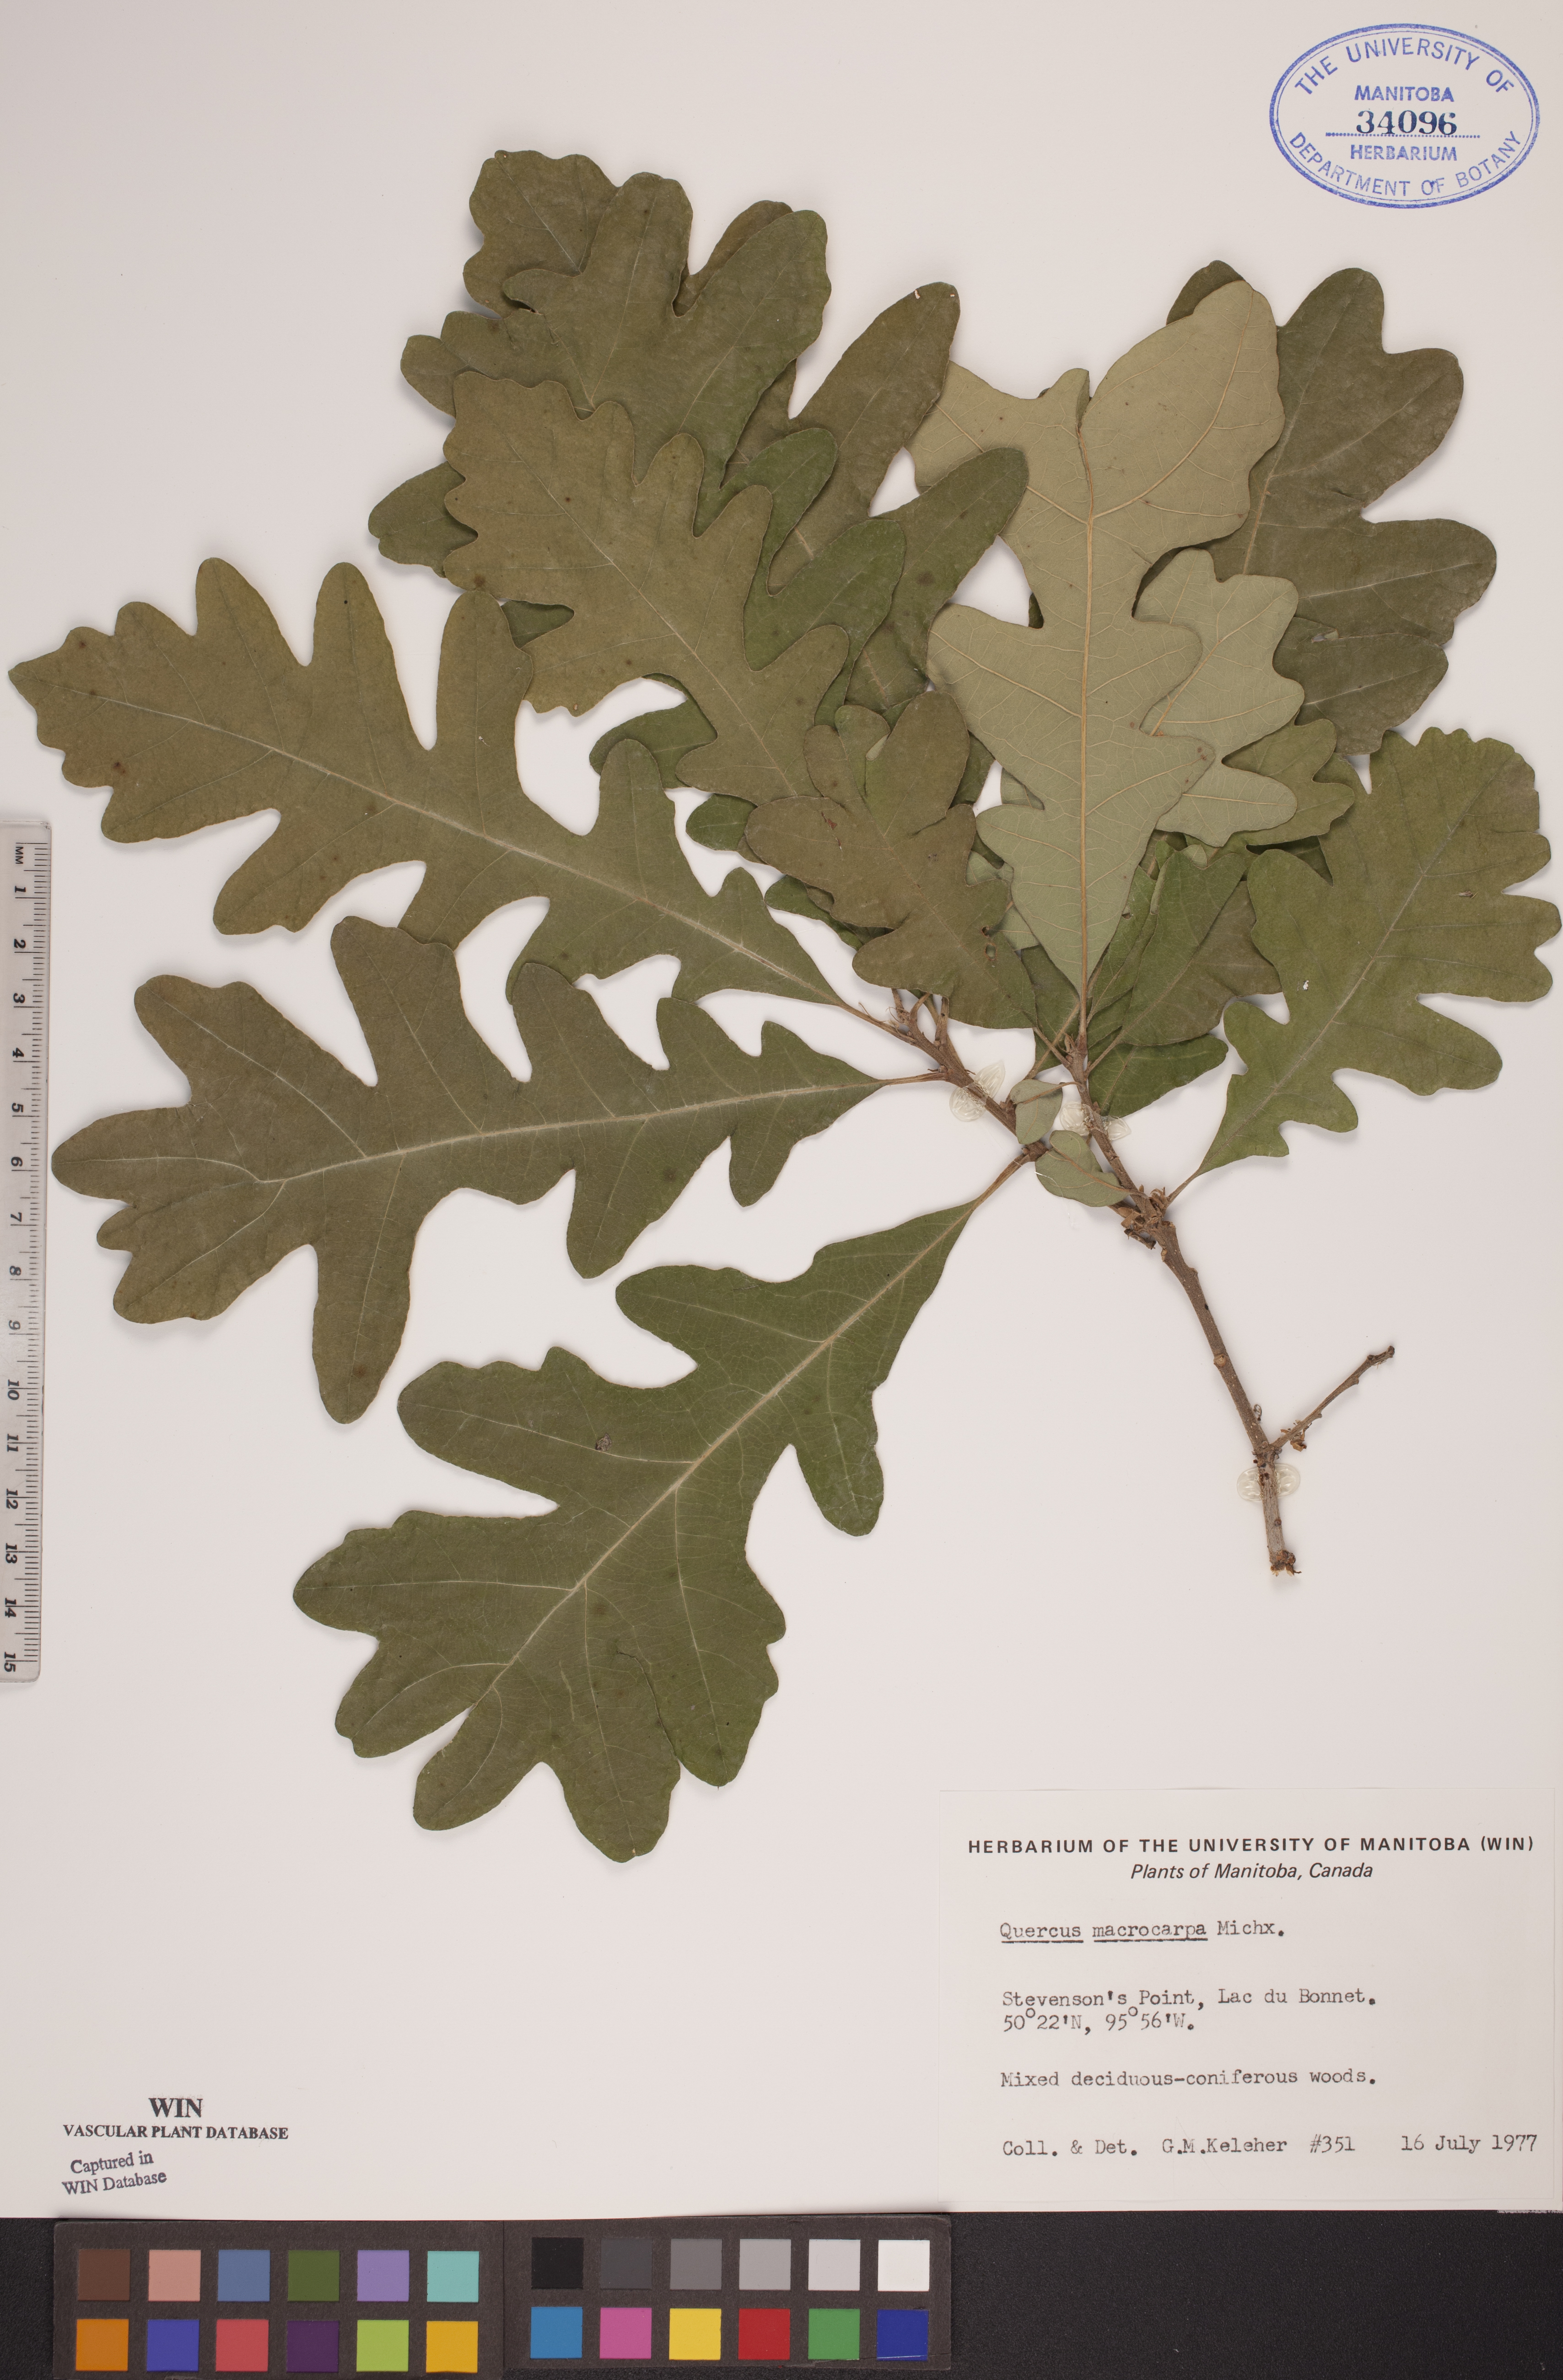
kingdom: Plantae
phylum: Tracheophyta
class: Magnoliopsida
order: Fagales
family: Fagaceae
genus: Quercus
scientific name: Quercus macrocarpa
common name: Bur oak
